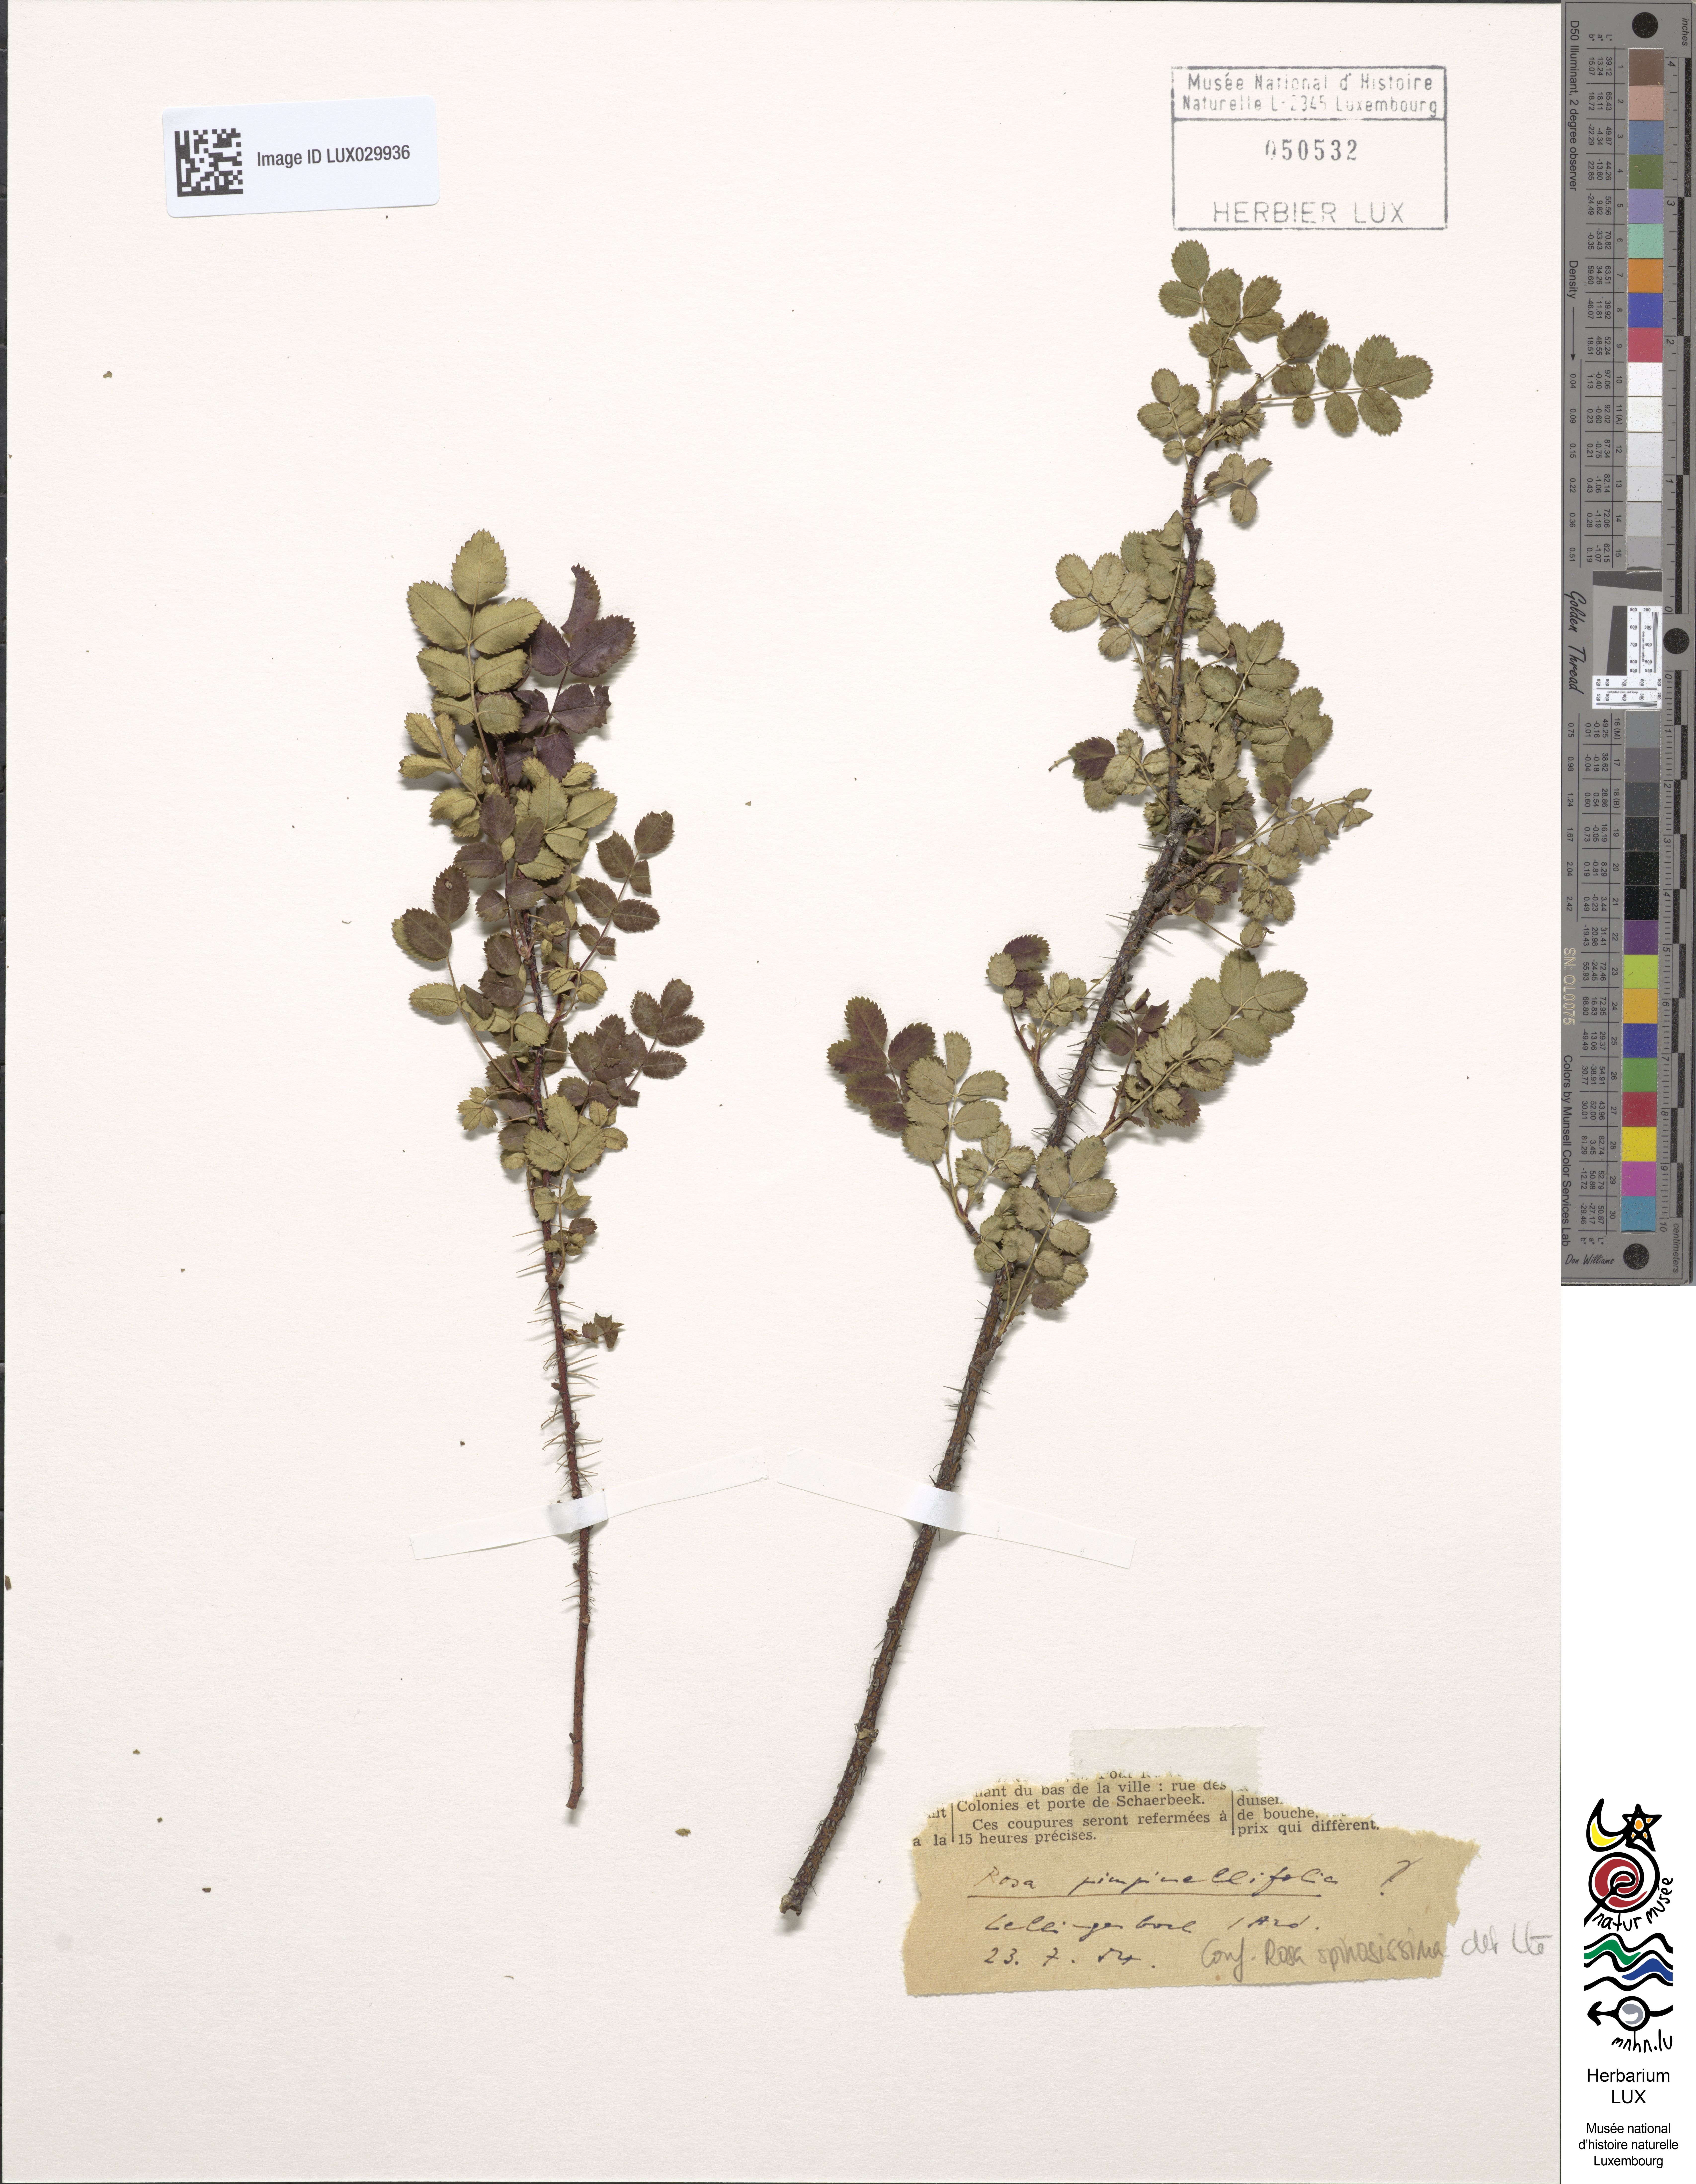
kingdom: Plantae
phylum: Tracheophyta
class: Magnoliopsida
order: Rosales
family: Rosaceae
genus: Rosa
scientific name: Rosa
